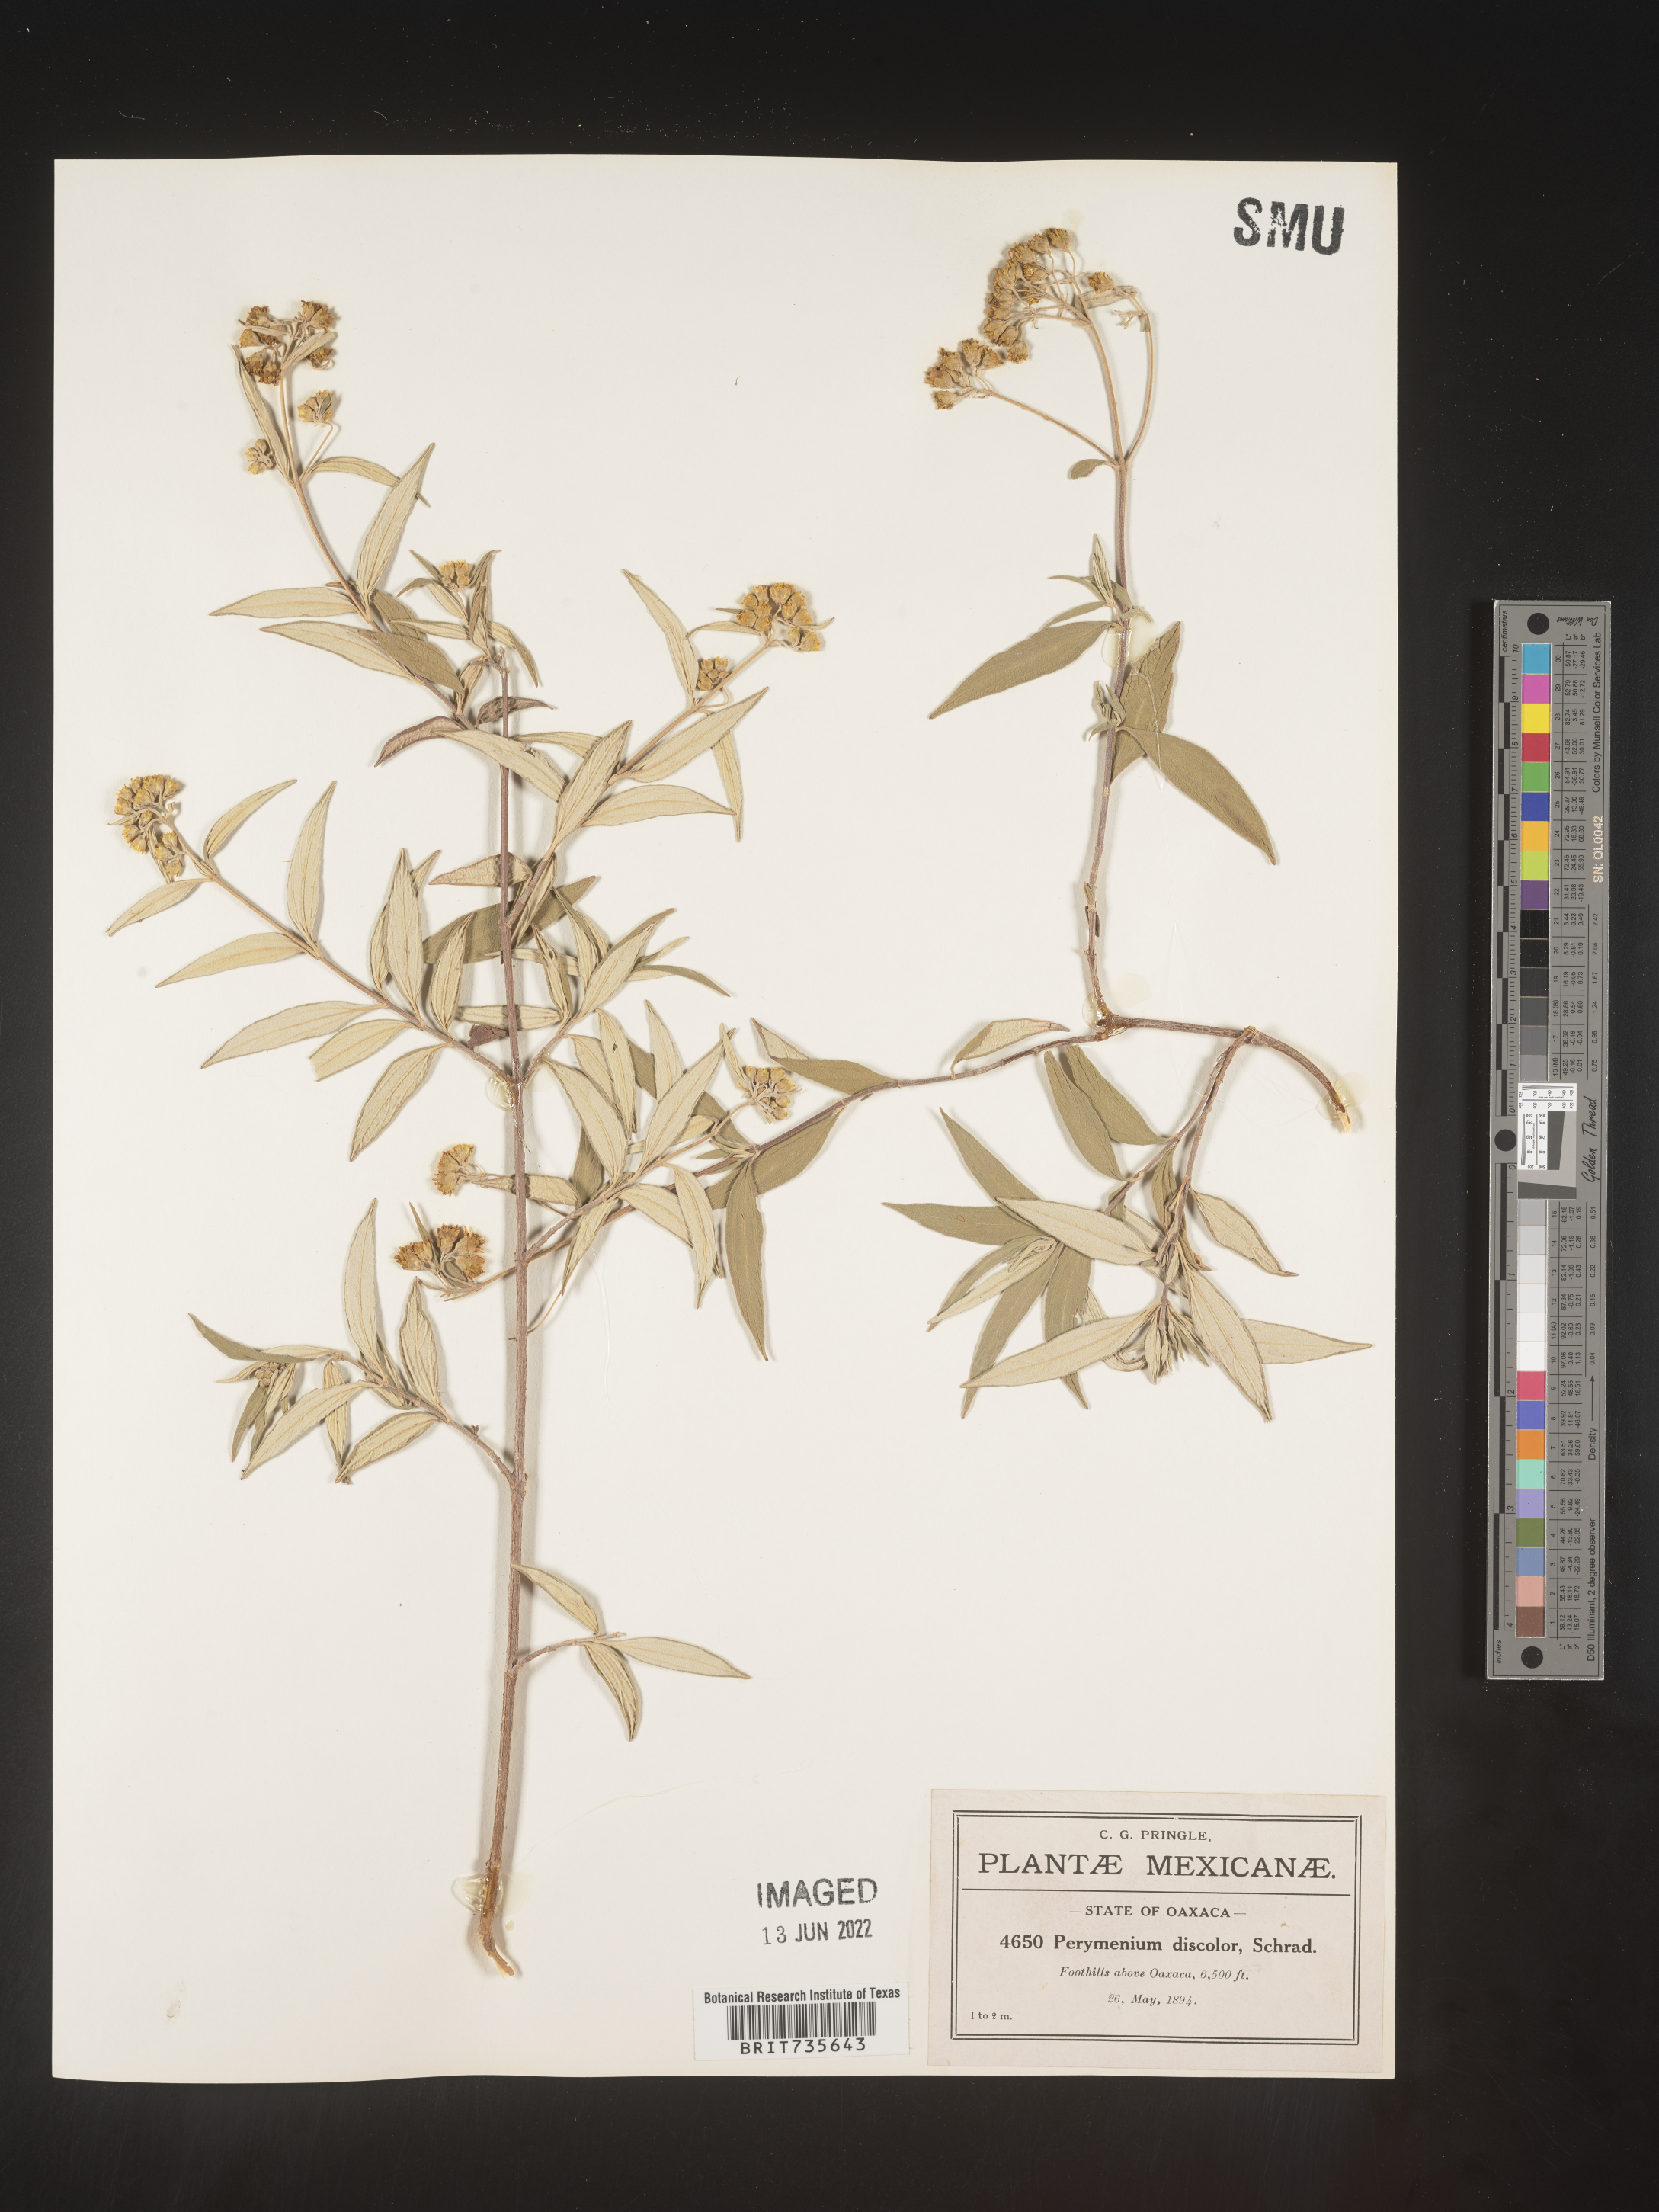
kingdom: Plantae
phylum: Tracheophyta
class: Magnoliopsida
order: Asterales
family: Asteraceae
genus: Perymenium
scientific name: Perymenium
